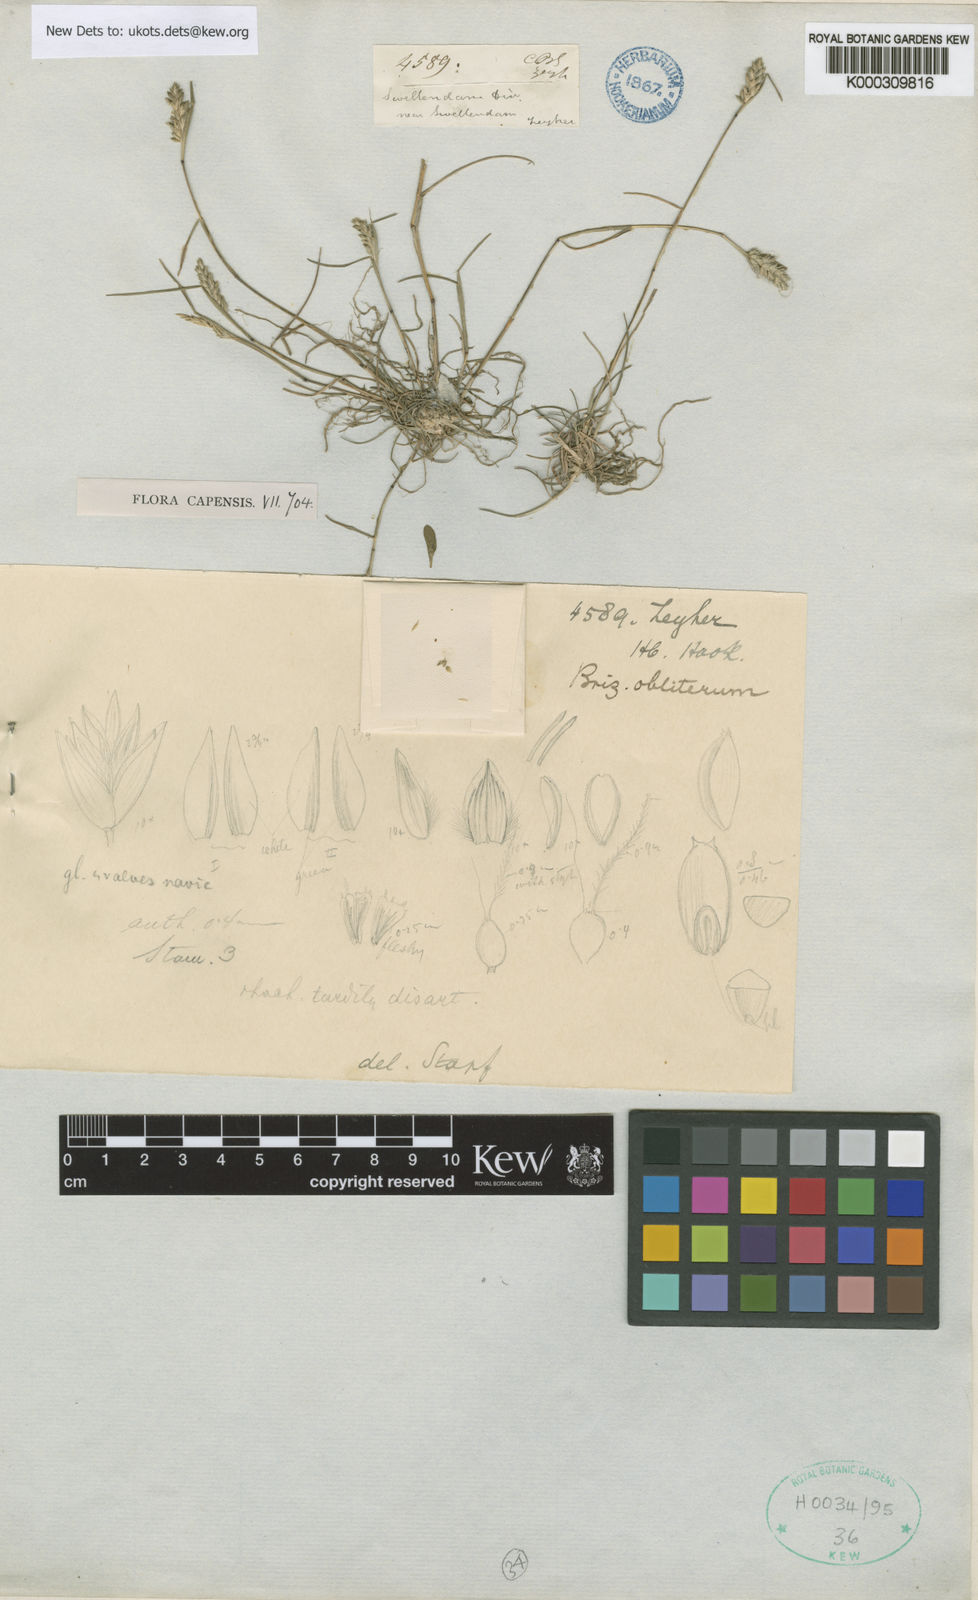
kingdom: Plantae
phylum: Tracheophyta
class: Liliopsida
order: Poales
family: Poaceae
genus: Tribolium
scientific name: Tribolium obliterum
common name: Capetown grass
